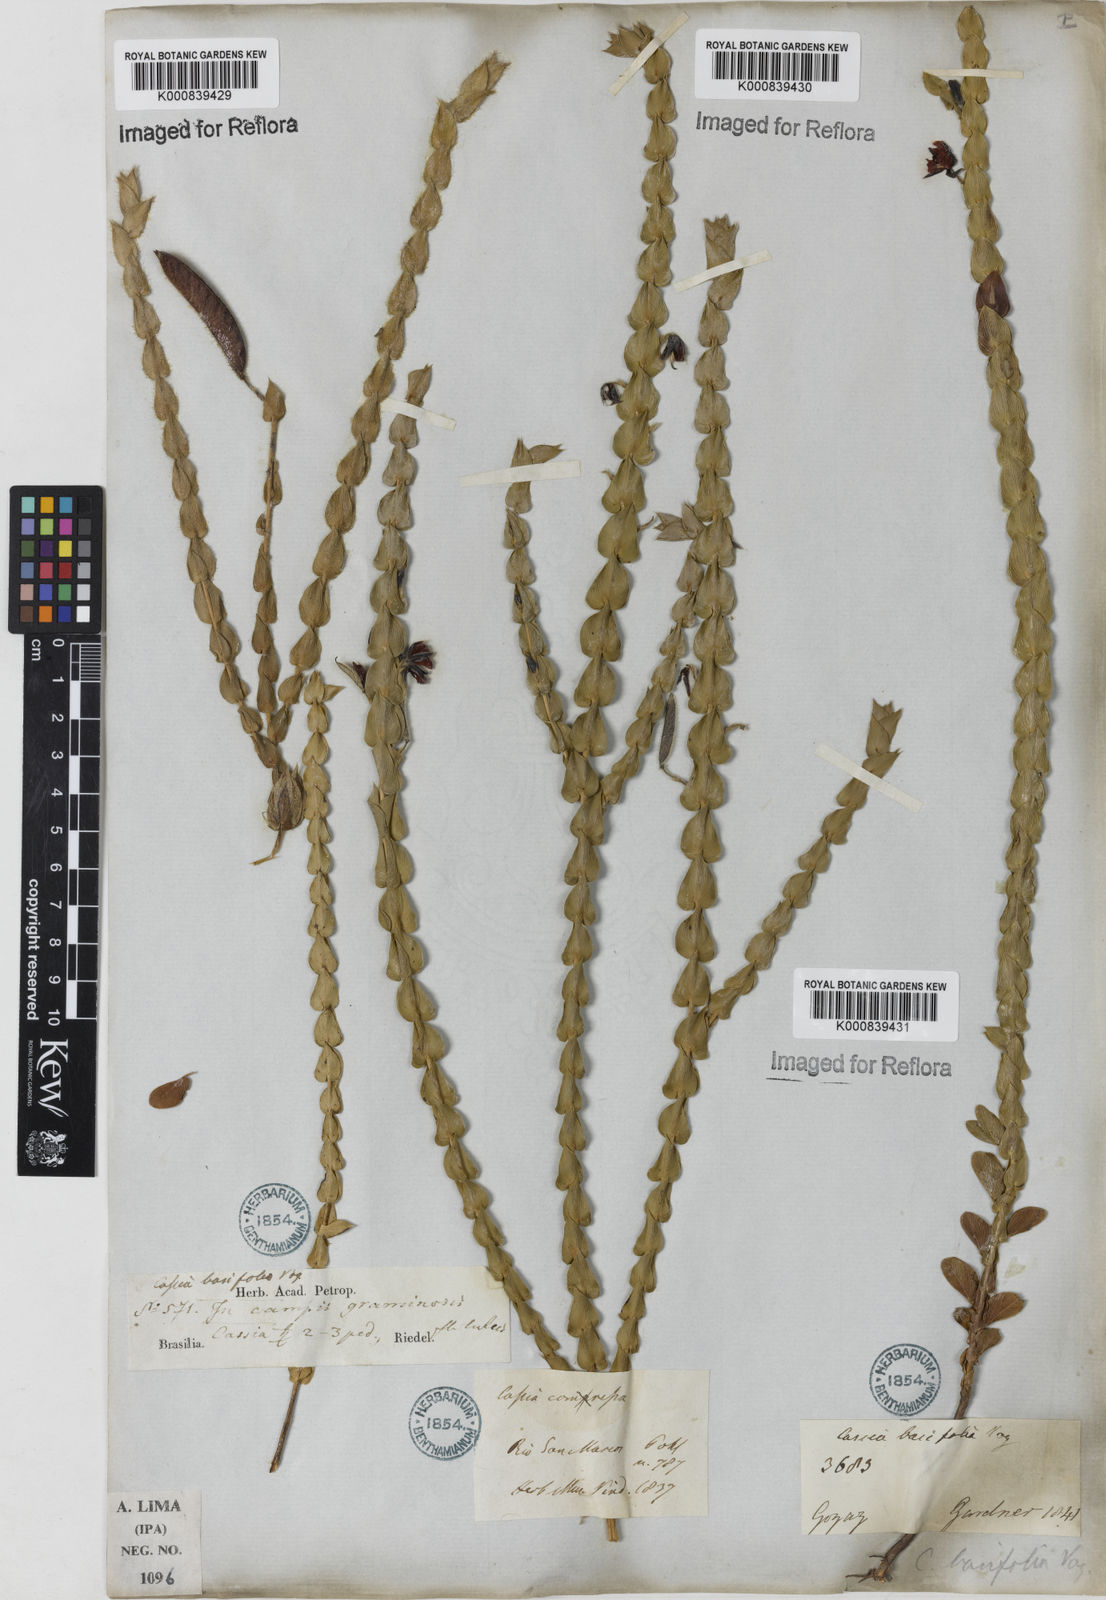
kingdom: Plantae
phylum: Tracheophyta
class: Magnoliopsida
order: Fabales
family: Fabaceae
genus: Chamaecrista
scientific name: Chamaecrista basifolia
